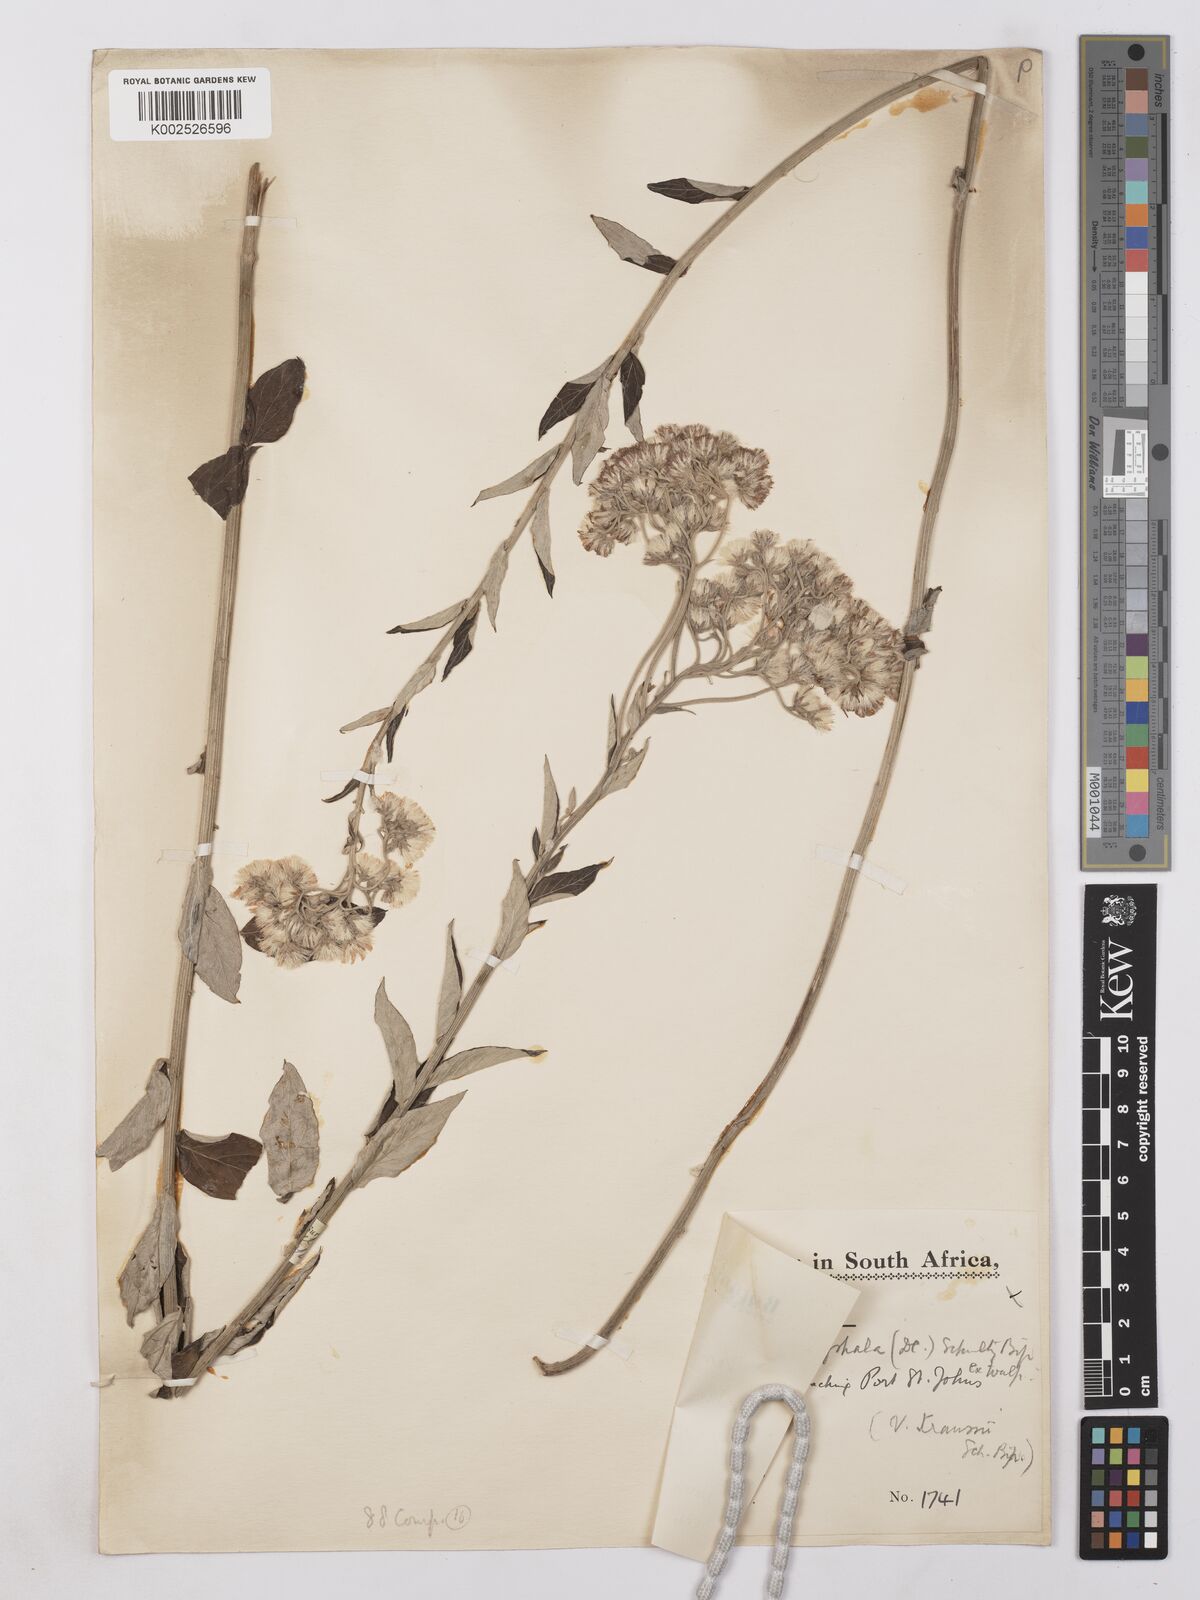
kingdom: Plantae
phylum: Tracheophyta
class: Magnoliopsida
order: Asterales
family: Asteraceae
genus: Lepidaploa
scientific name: Lepidaploa aurea
